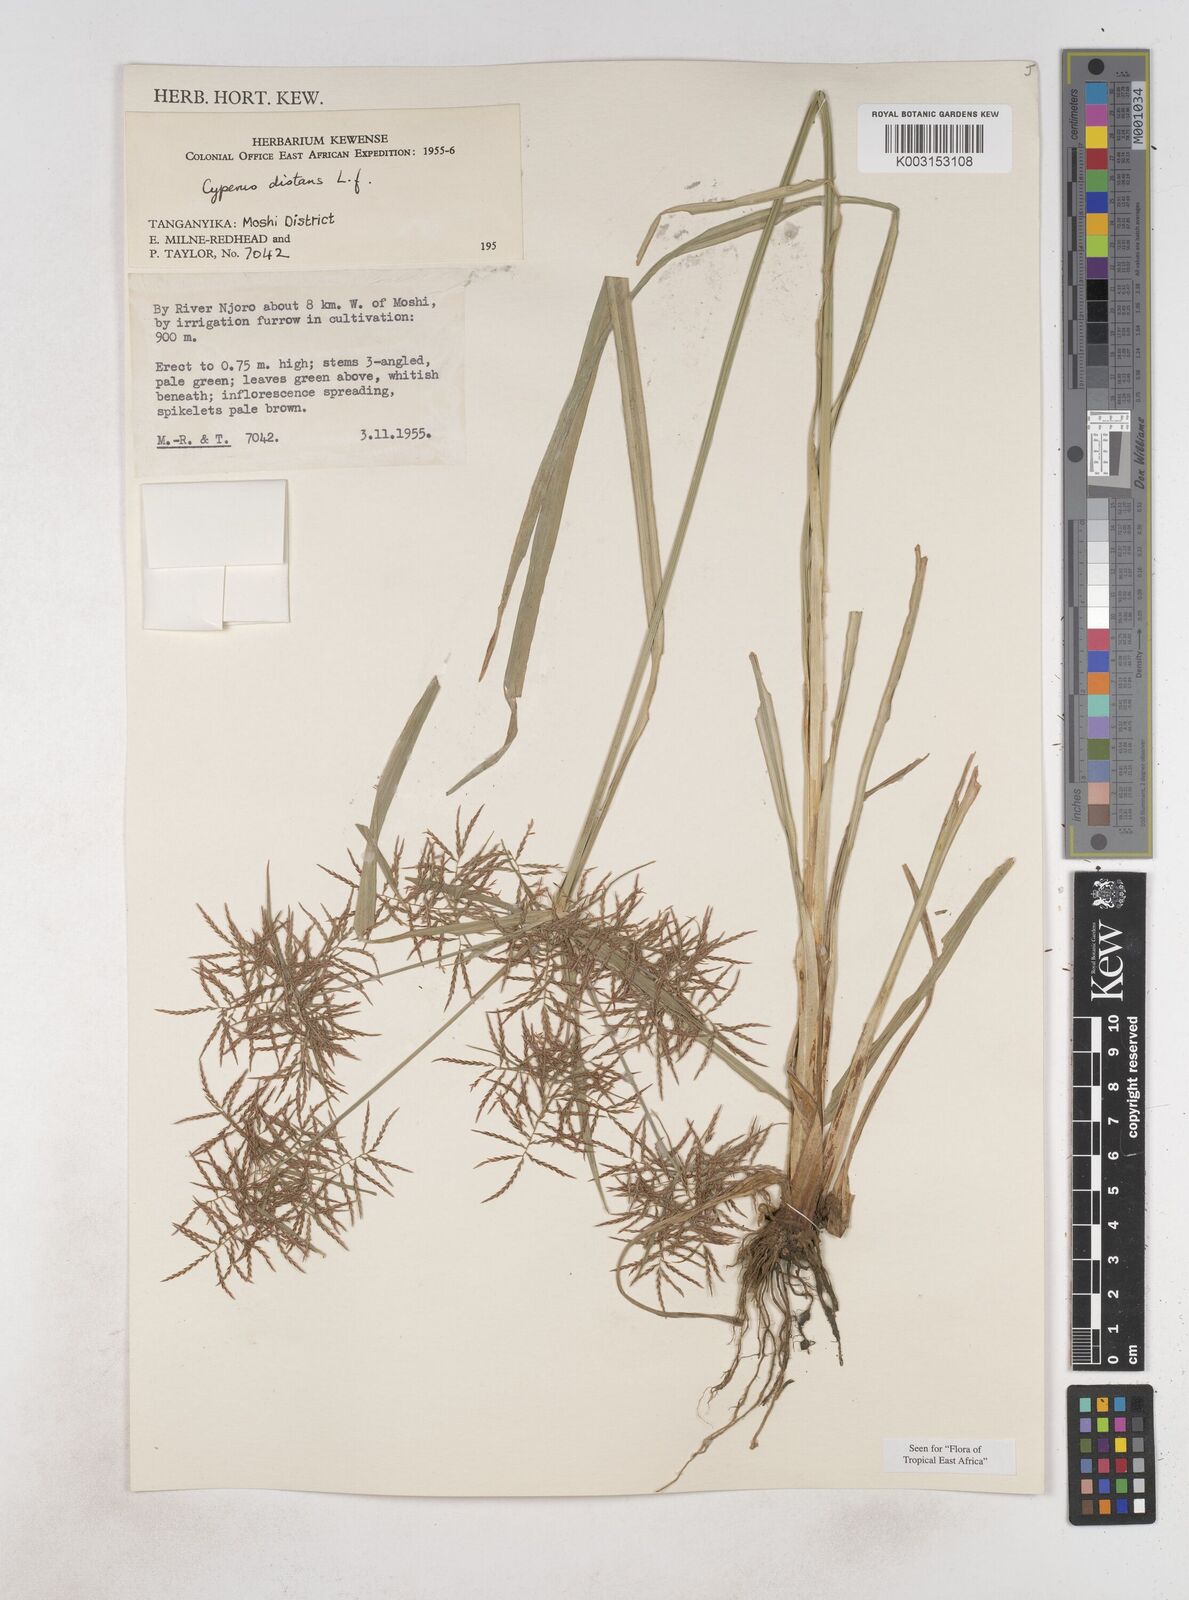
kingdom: Plantae
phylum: Tracheophyta
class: Liliopsida
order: Poales
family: Cyperaceae
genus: Cyperus
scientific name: Cyperus distans
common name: Slender cyperus
